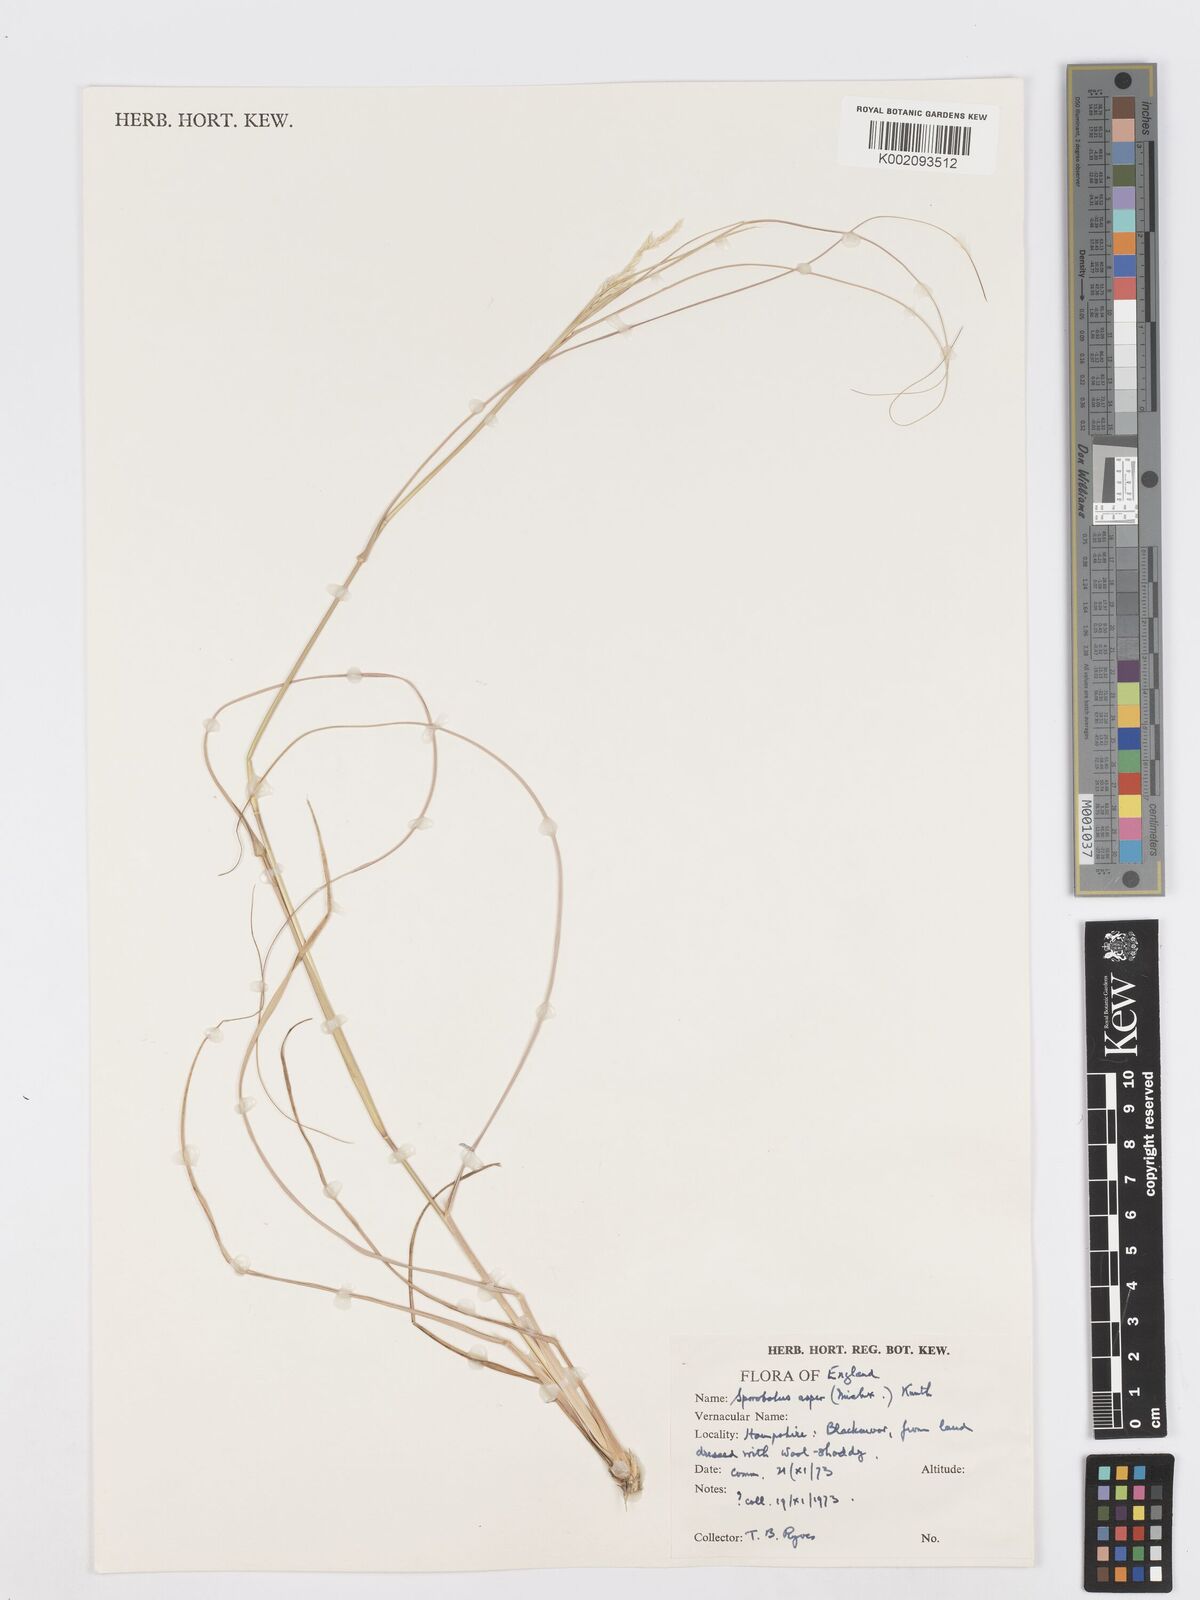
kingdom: Plantae
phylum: Tracheophyta
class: Liliopsida
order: Poales
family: Poaceae
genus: Sporobolus
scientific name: Sporobolus compositus
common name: Rough dropseed
